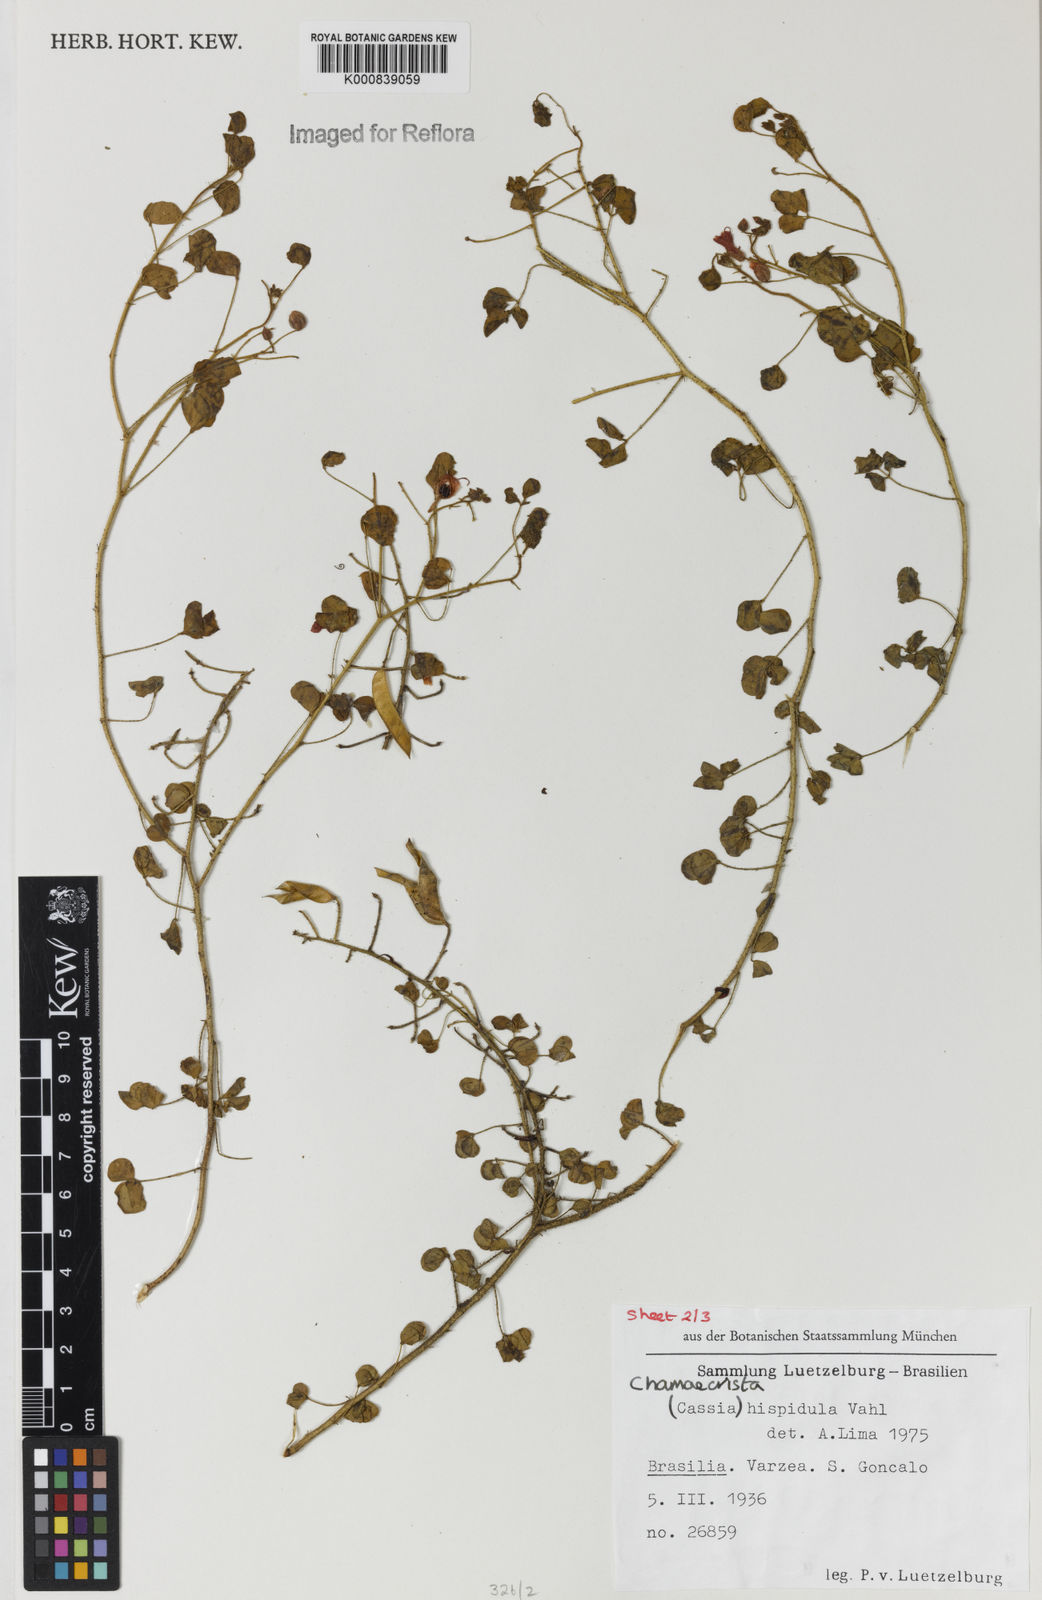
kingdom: Plantae
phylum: Tracheophyta
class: Magnoliopsida
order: Fabales
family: Fabaceae
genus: Chamaecrista
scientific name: Chamaecrista hispidula
